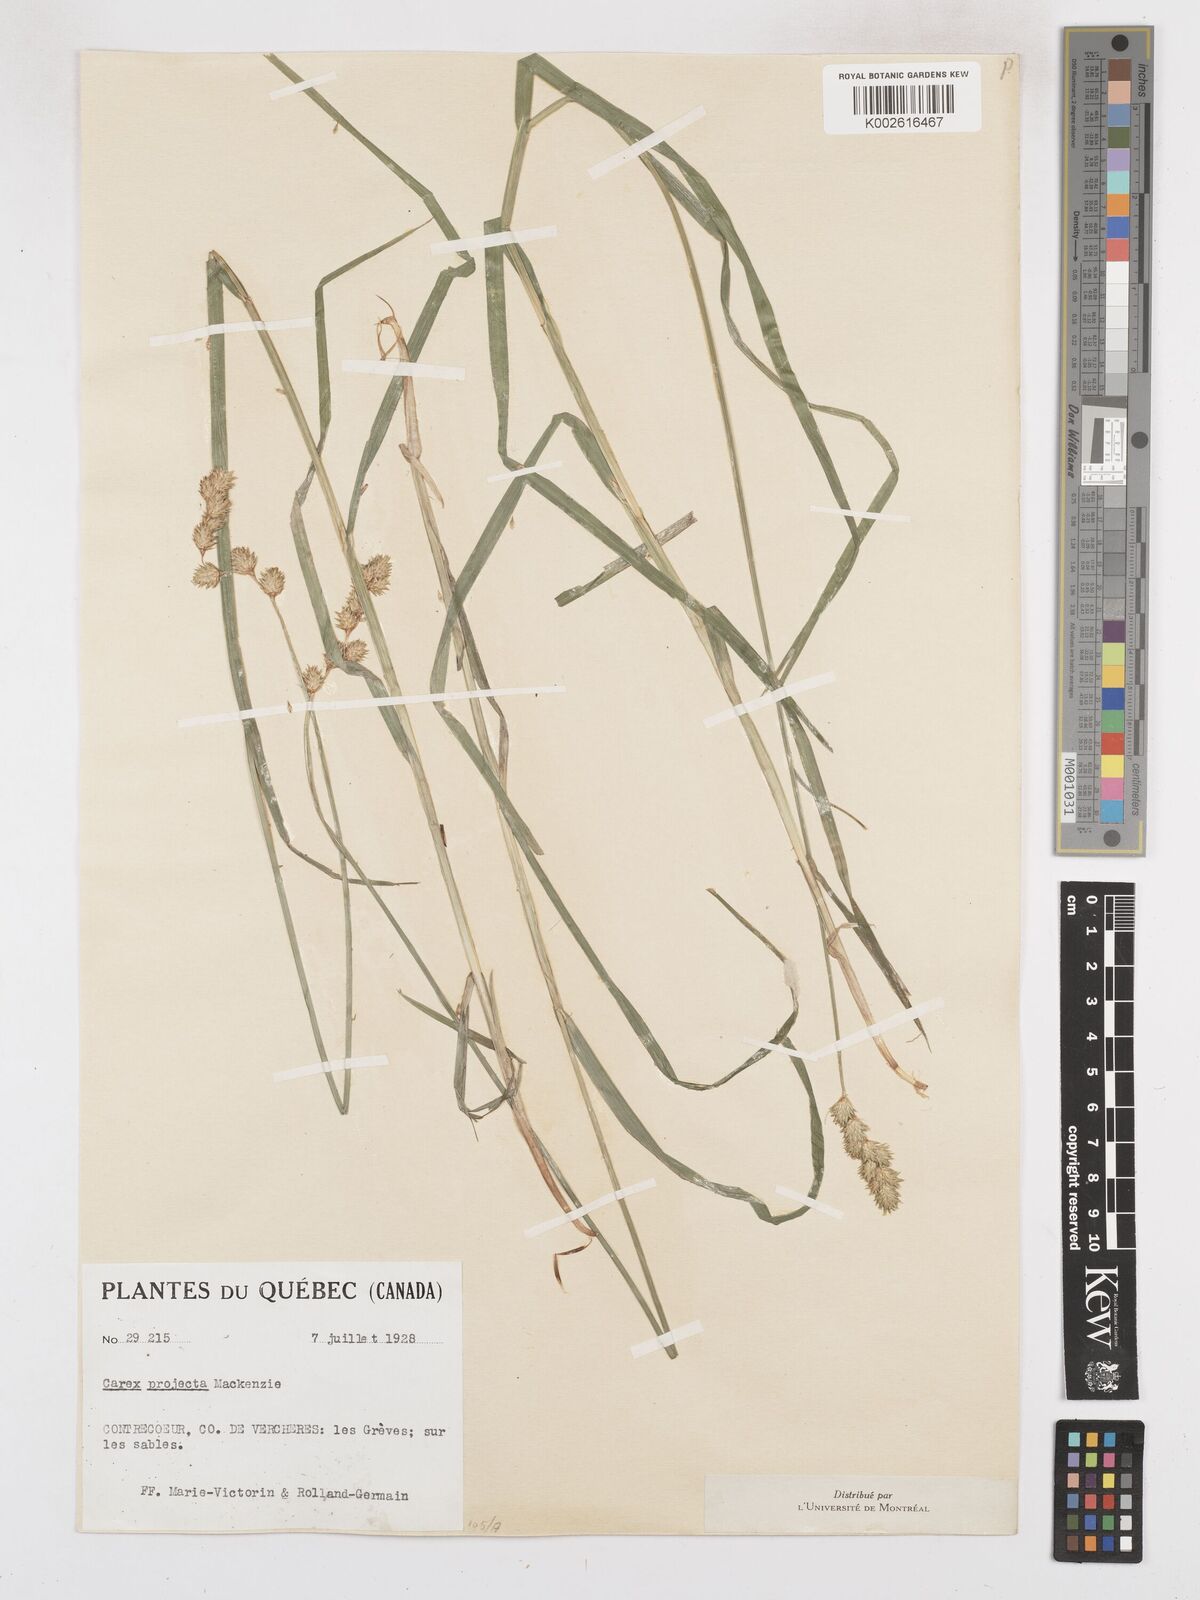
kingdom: Plantae
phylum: Tracheophyta
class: Liliopsida
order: Poales
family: Cyperaceae
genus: Carex
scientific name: Carex projecta
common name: Loose-headed oval sedge
